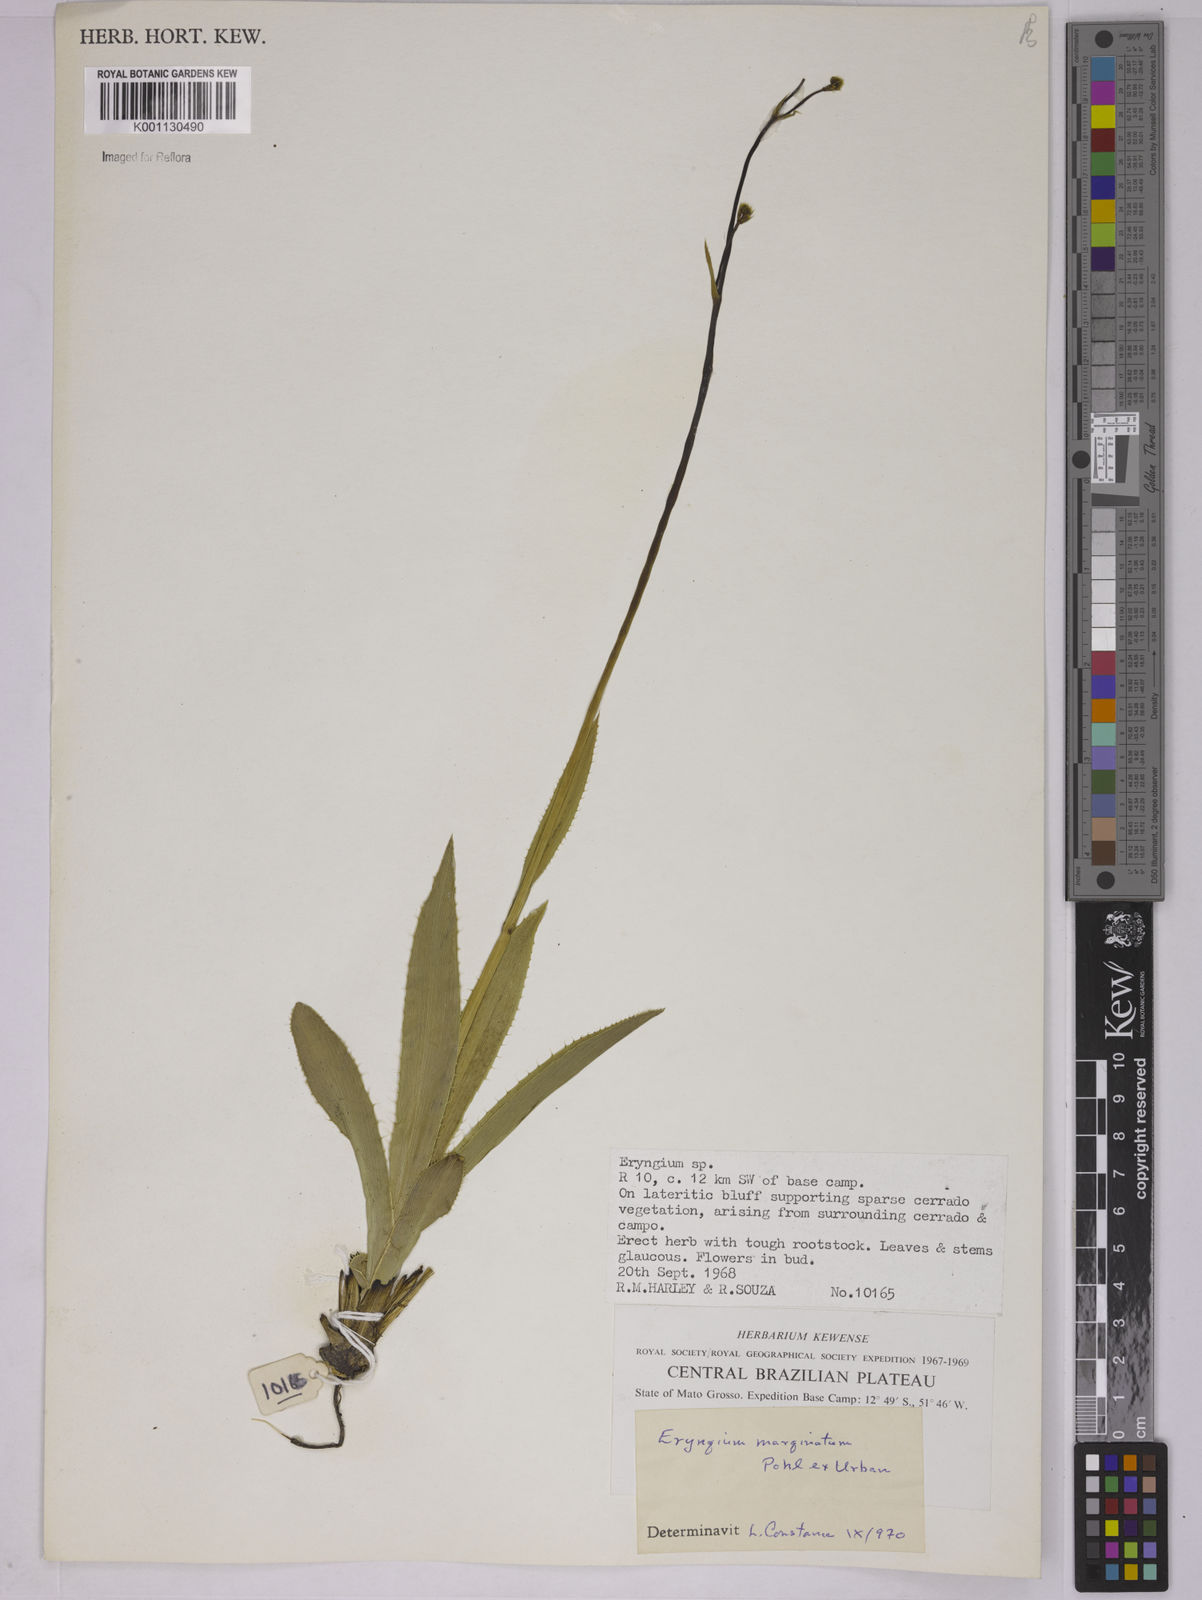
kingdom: Plantae
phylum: Tracheophyta
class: Magnoliopsida
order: Apiales
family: Apiaceae
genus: Eryngium
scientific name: Eryngium marginatum
